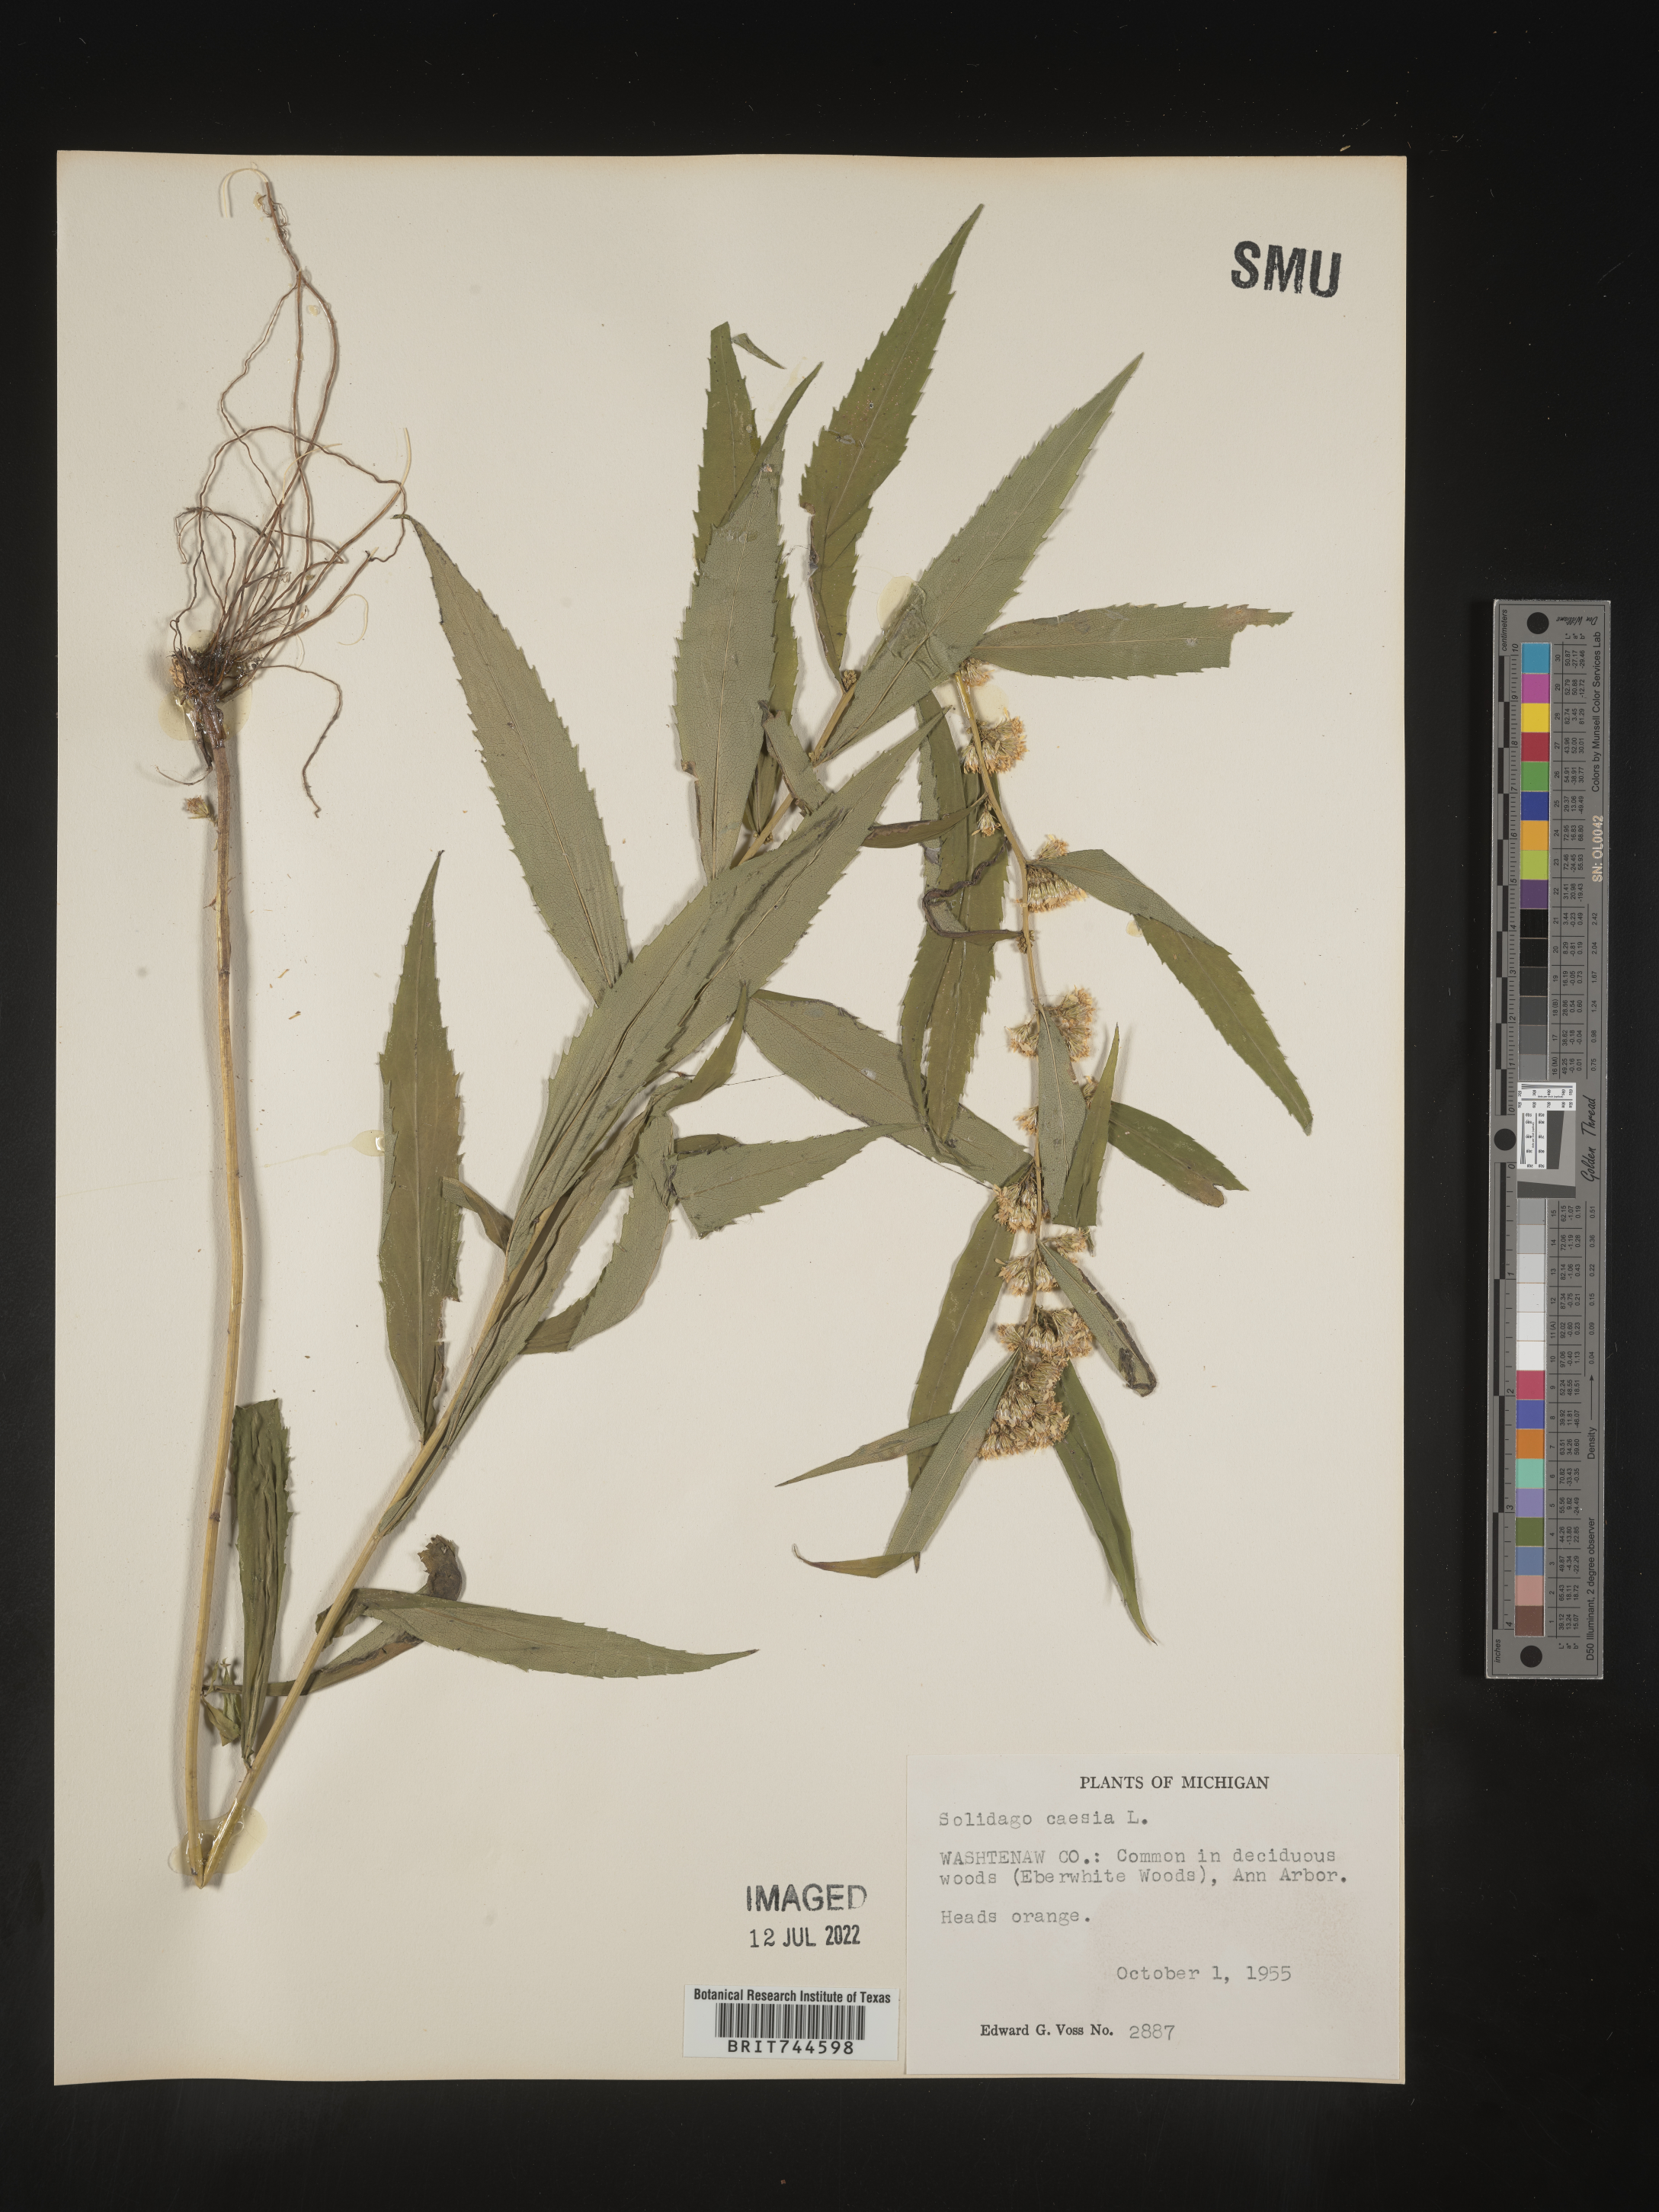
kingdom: Plantae
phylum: Tracheophyta
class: Magnoliopsida
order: Asterales
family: Asteraceae
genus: Solidago
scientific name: Solidago caesia
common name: Woodland goldenrod
